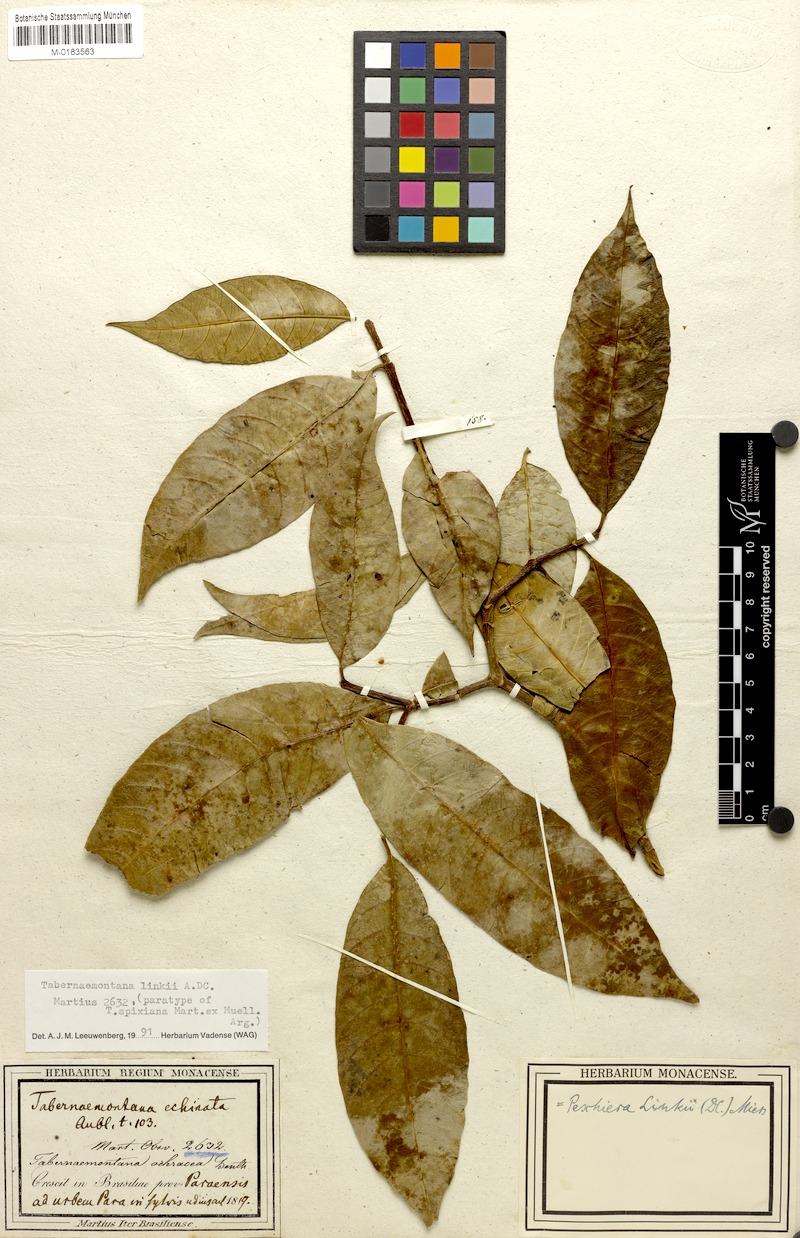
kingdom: Plantae
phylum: Tracheophyta
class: Magnoliopsida
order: Gentianales
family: Apocynaceae
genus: Tabernaemontana
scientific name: Tabernaemontana linkii
